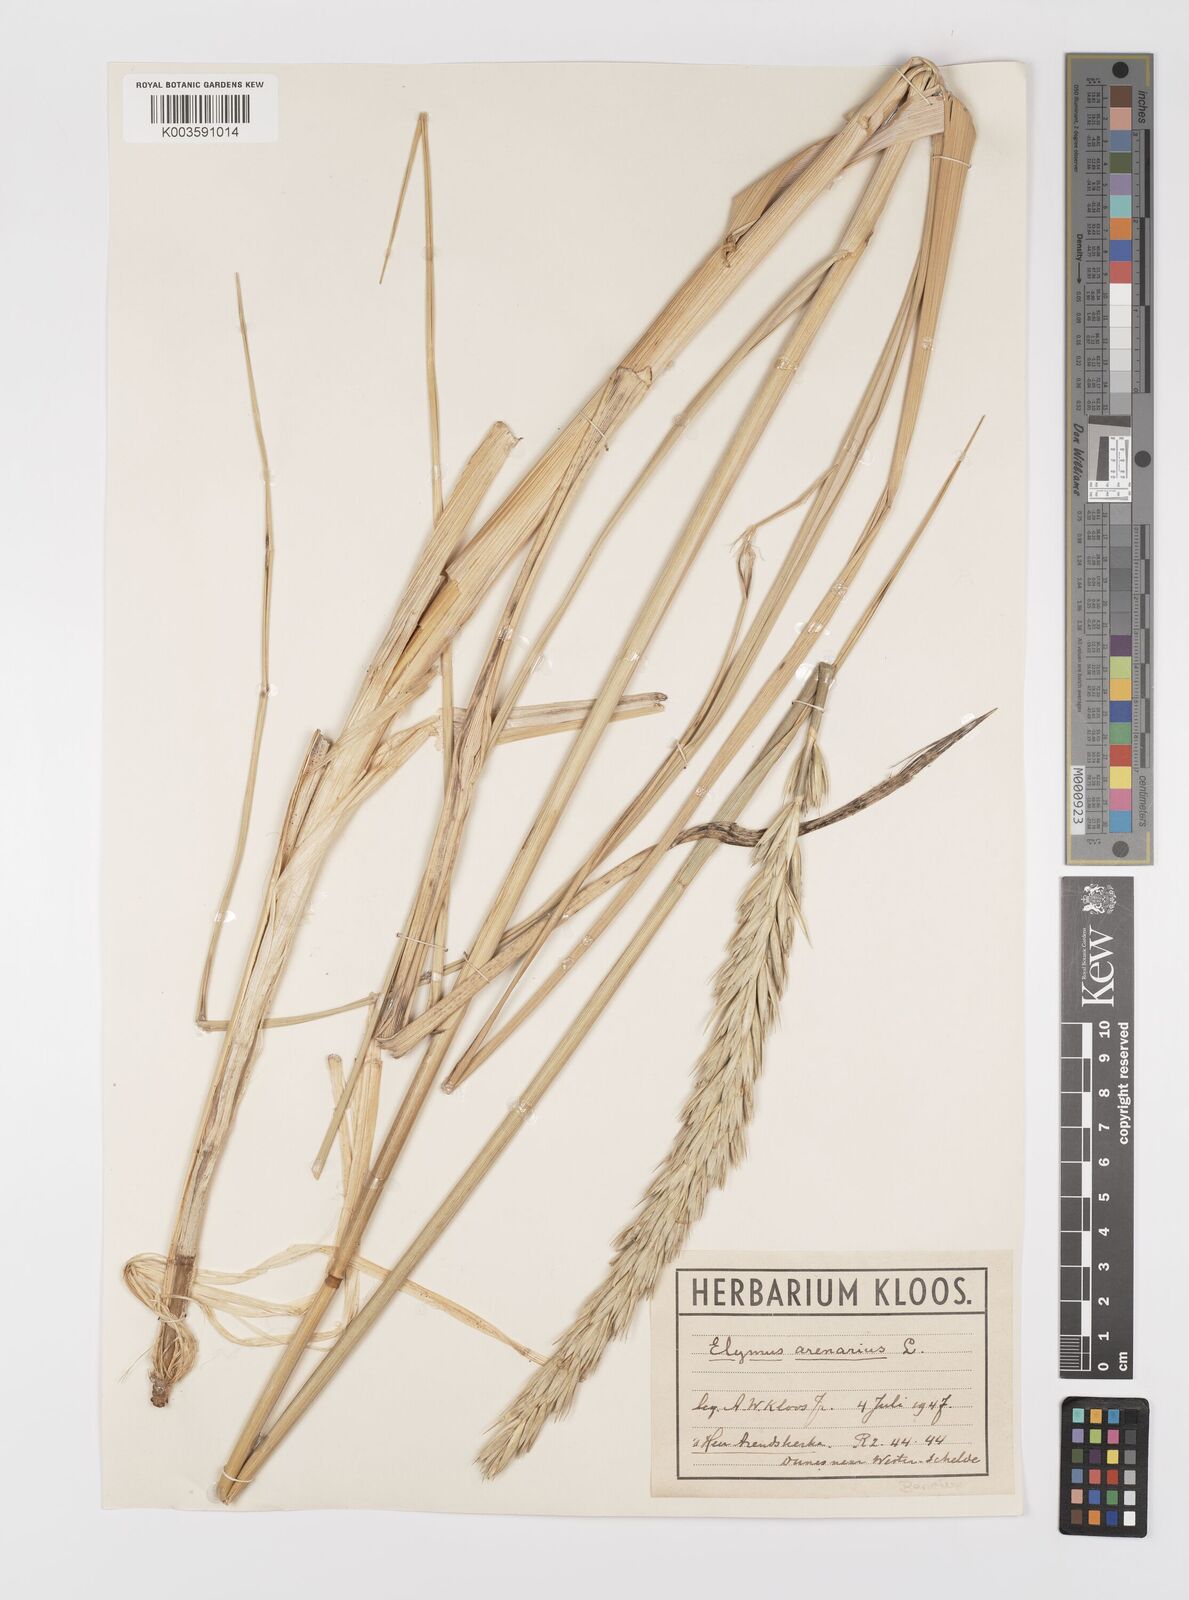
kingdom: Plantae
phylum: Tracheophyta
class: Liliopsida
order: Poales
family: Poaceae
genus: Leymus
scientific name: Leymus arenarius
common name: Lyme-grass
